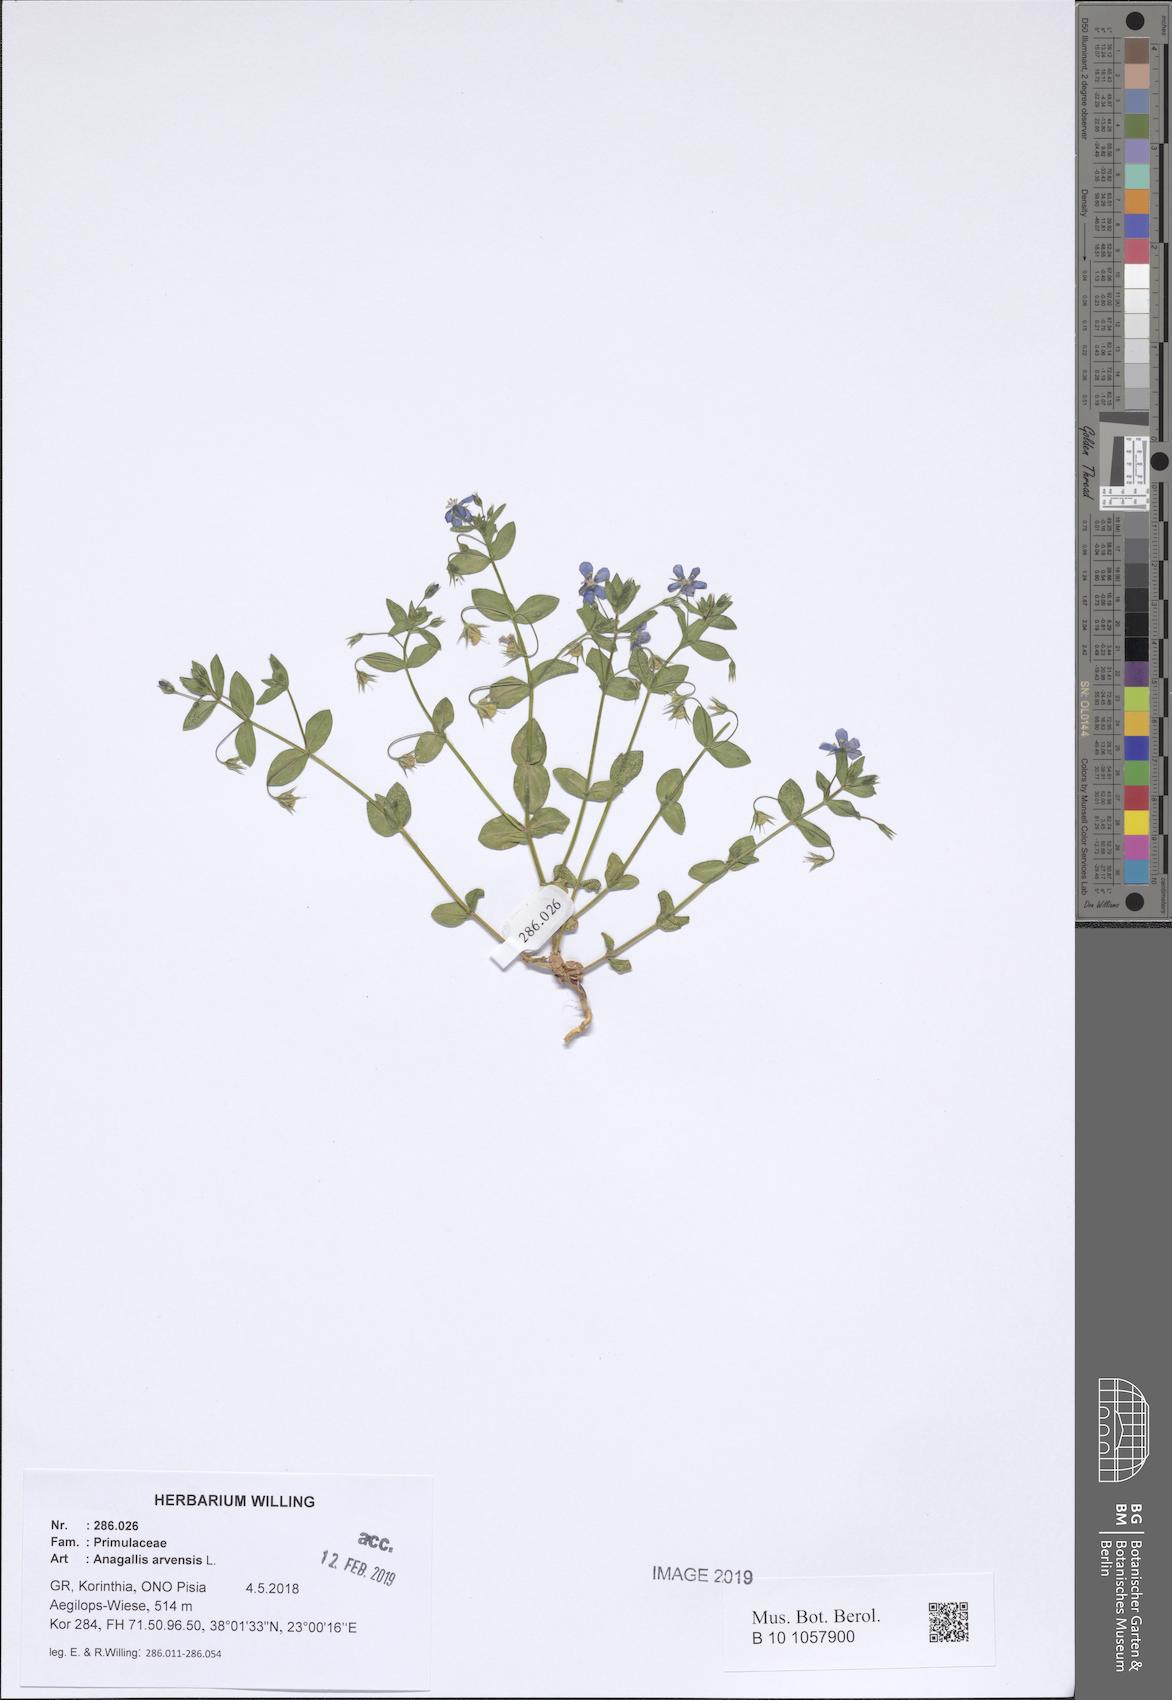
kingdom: Plantae
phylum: Tracheophyta
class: Magnoliopsida
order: Ericales
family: Primulaceae
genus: Lysimachia
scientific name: Lysimachia arvensis
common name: Scarlet pimpernel
